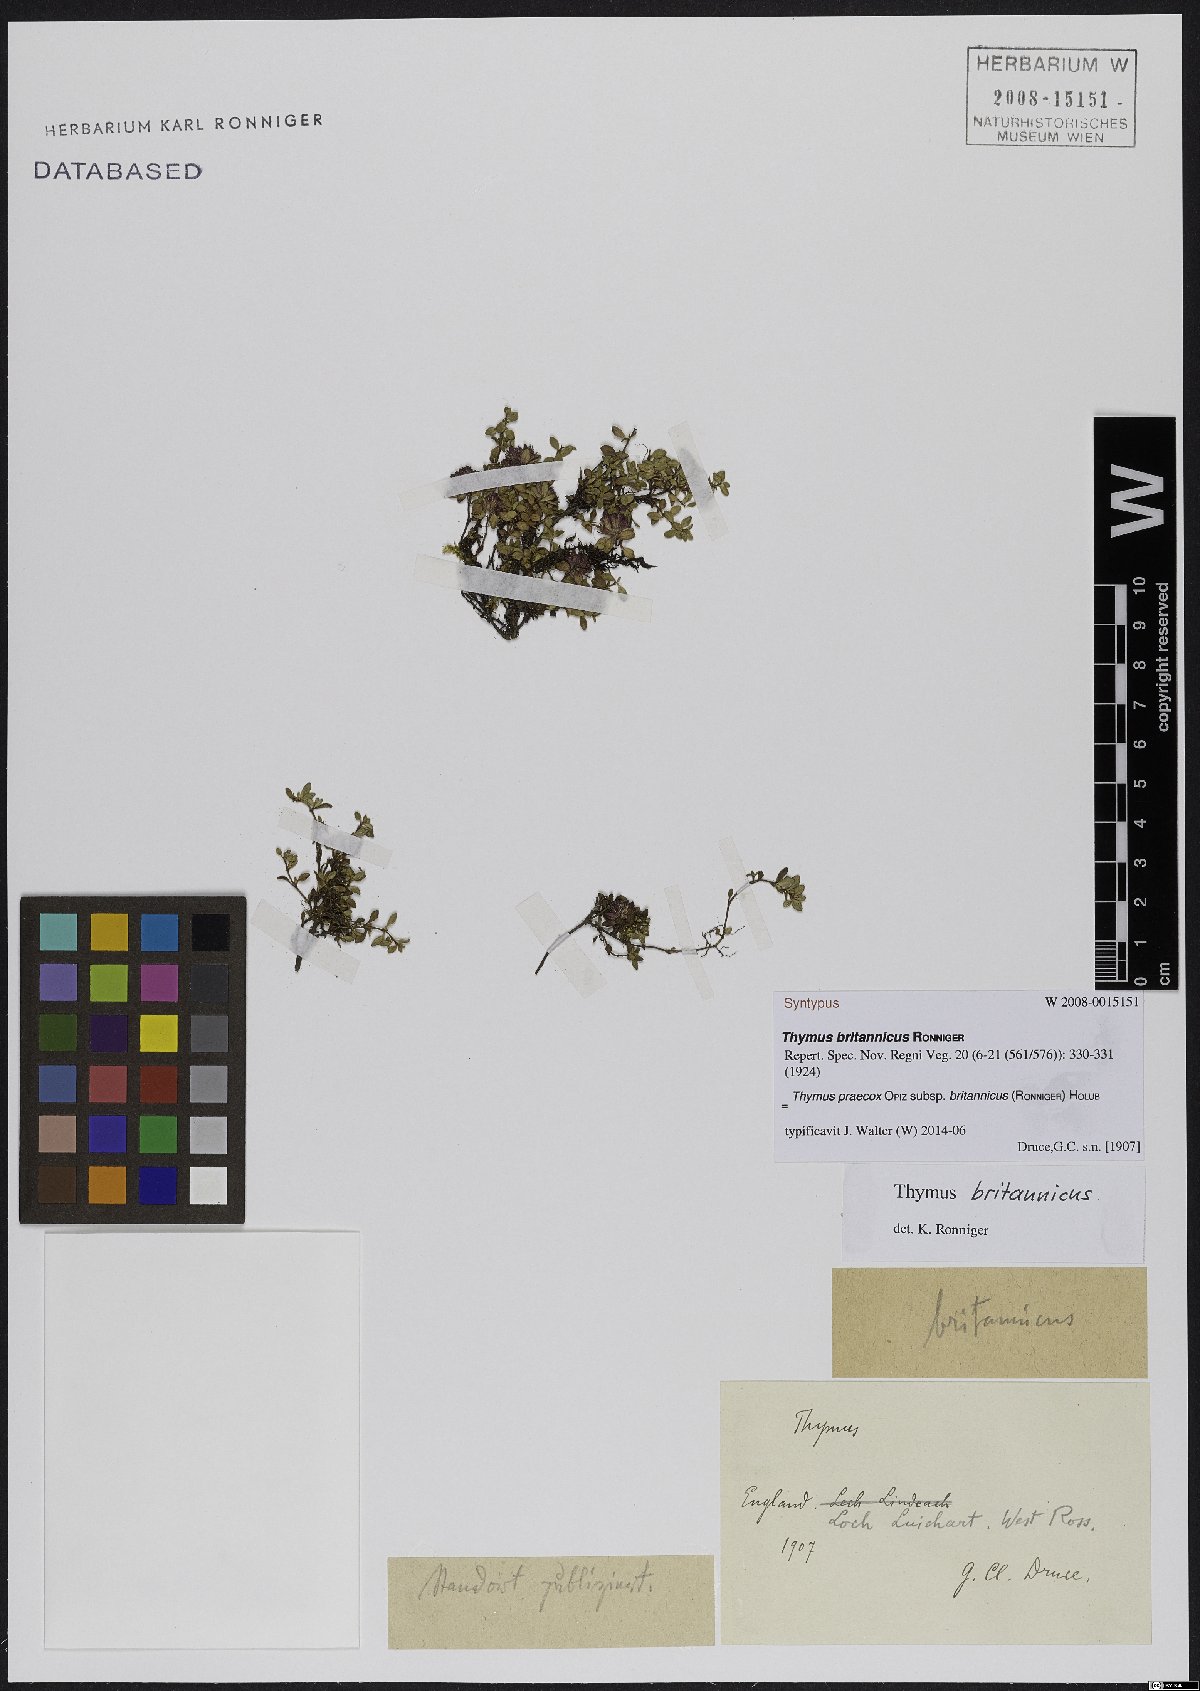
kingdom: Plantae
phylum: Tracheophyta
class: Magnoliopsida
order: Lamiales
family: Lamiaceae
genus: Thymus
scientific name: Thymus praecox
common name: Wild thyme
